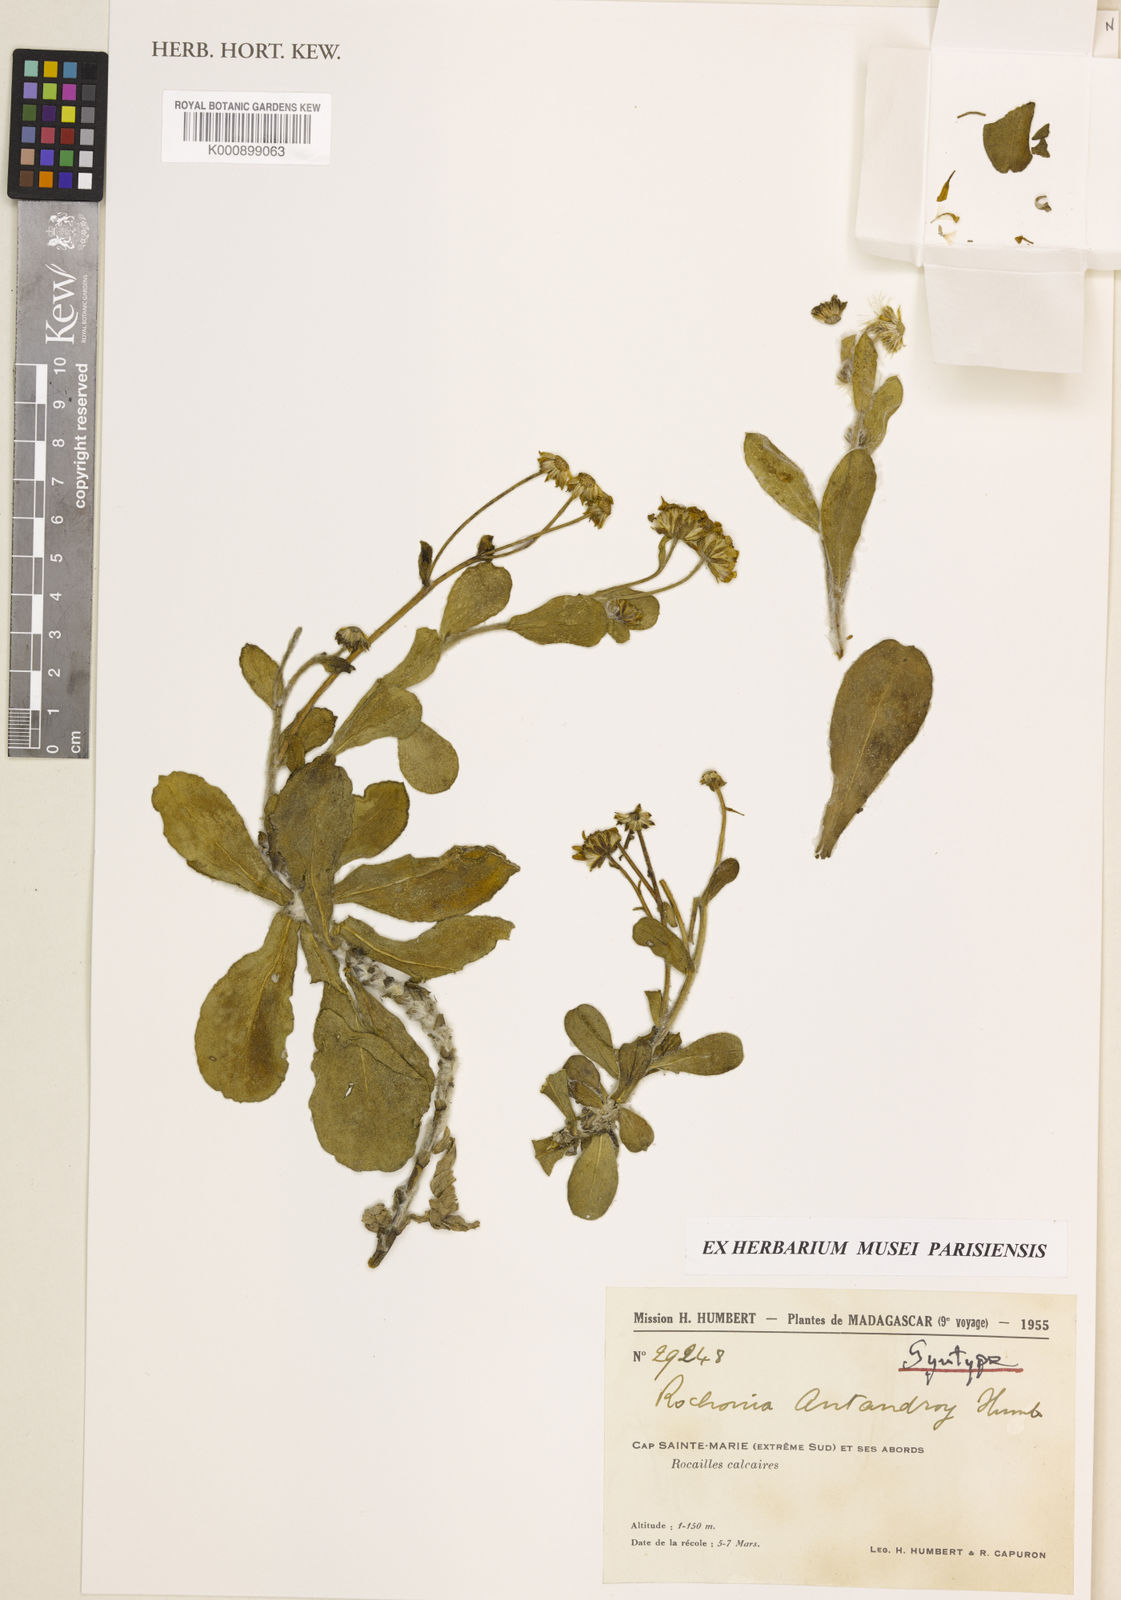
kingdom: Plantae
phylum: Tracheophyta
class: Magnoliopsida
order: Asterales
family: Asteraceae
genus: Rochonia
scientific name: Rochonia antandroy
